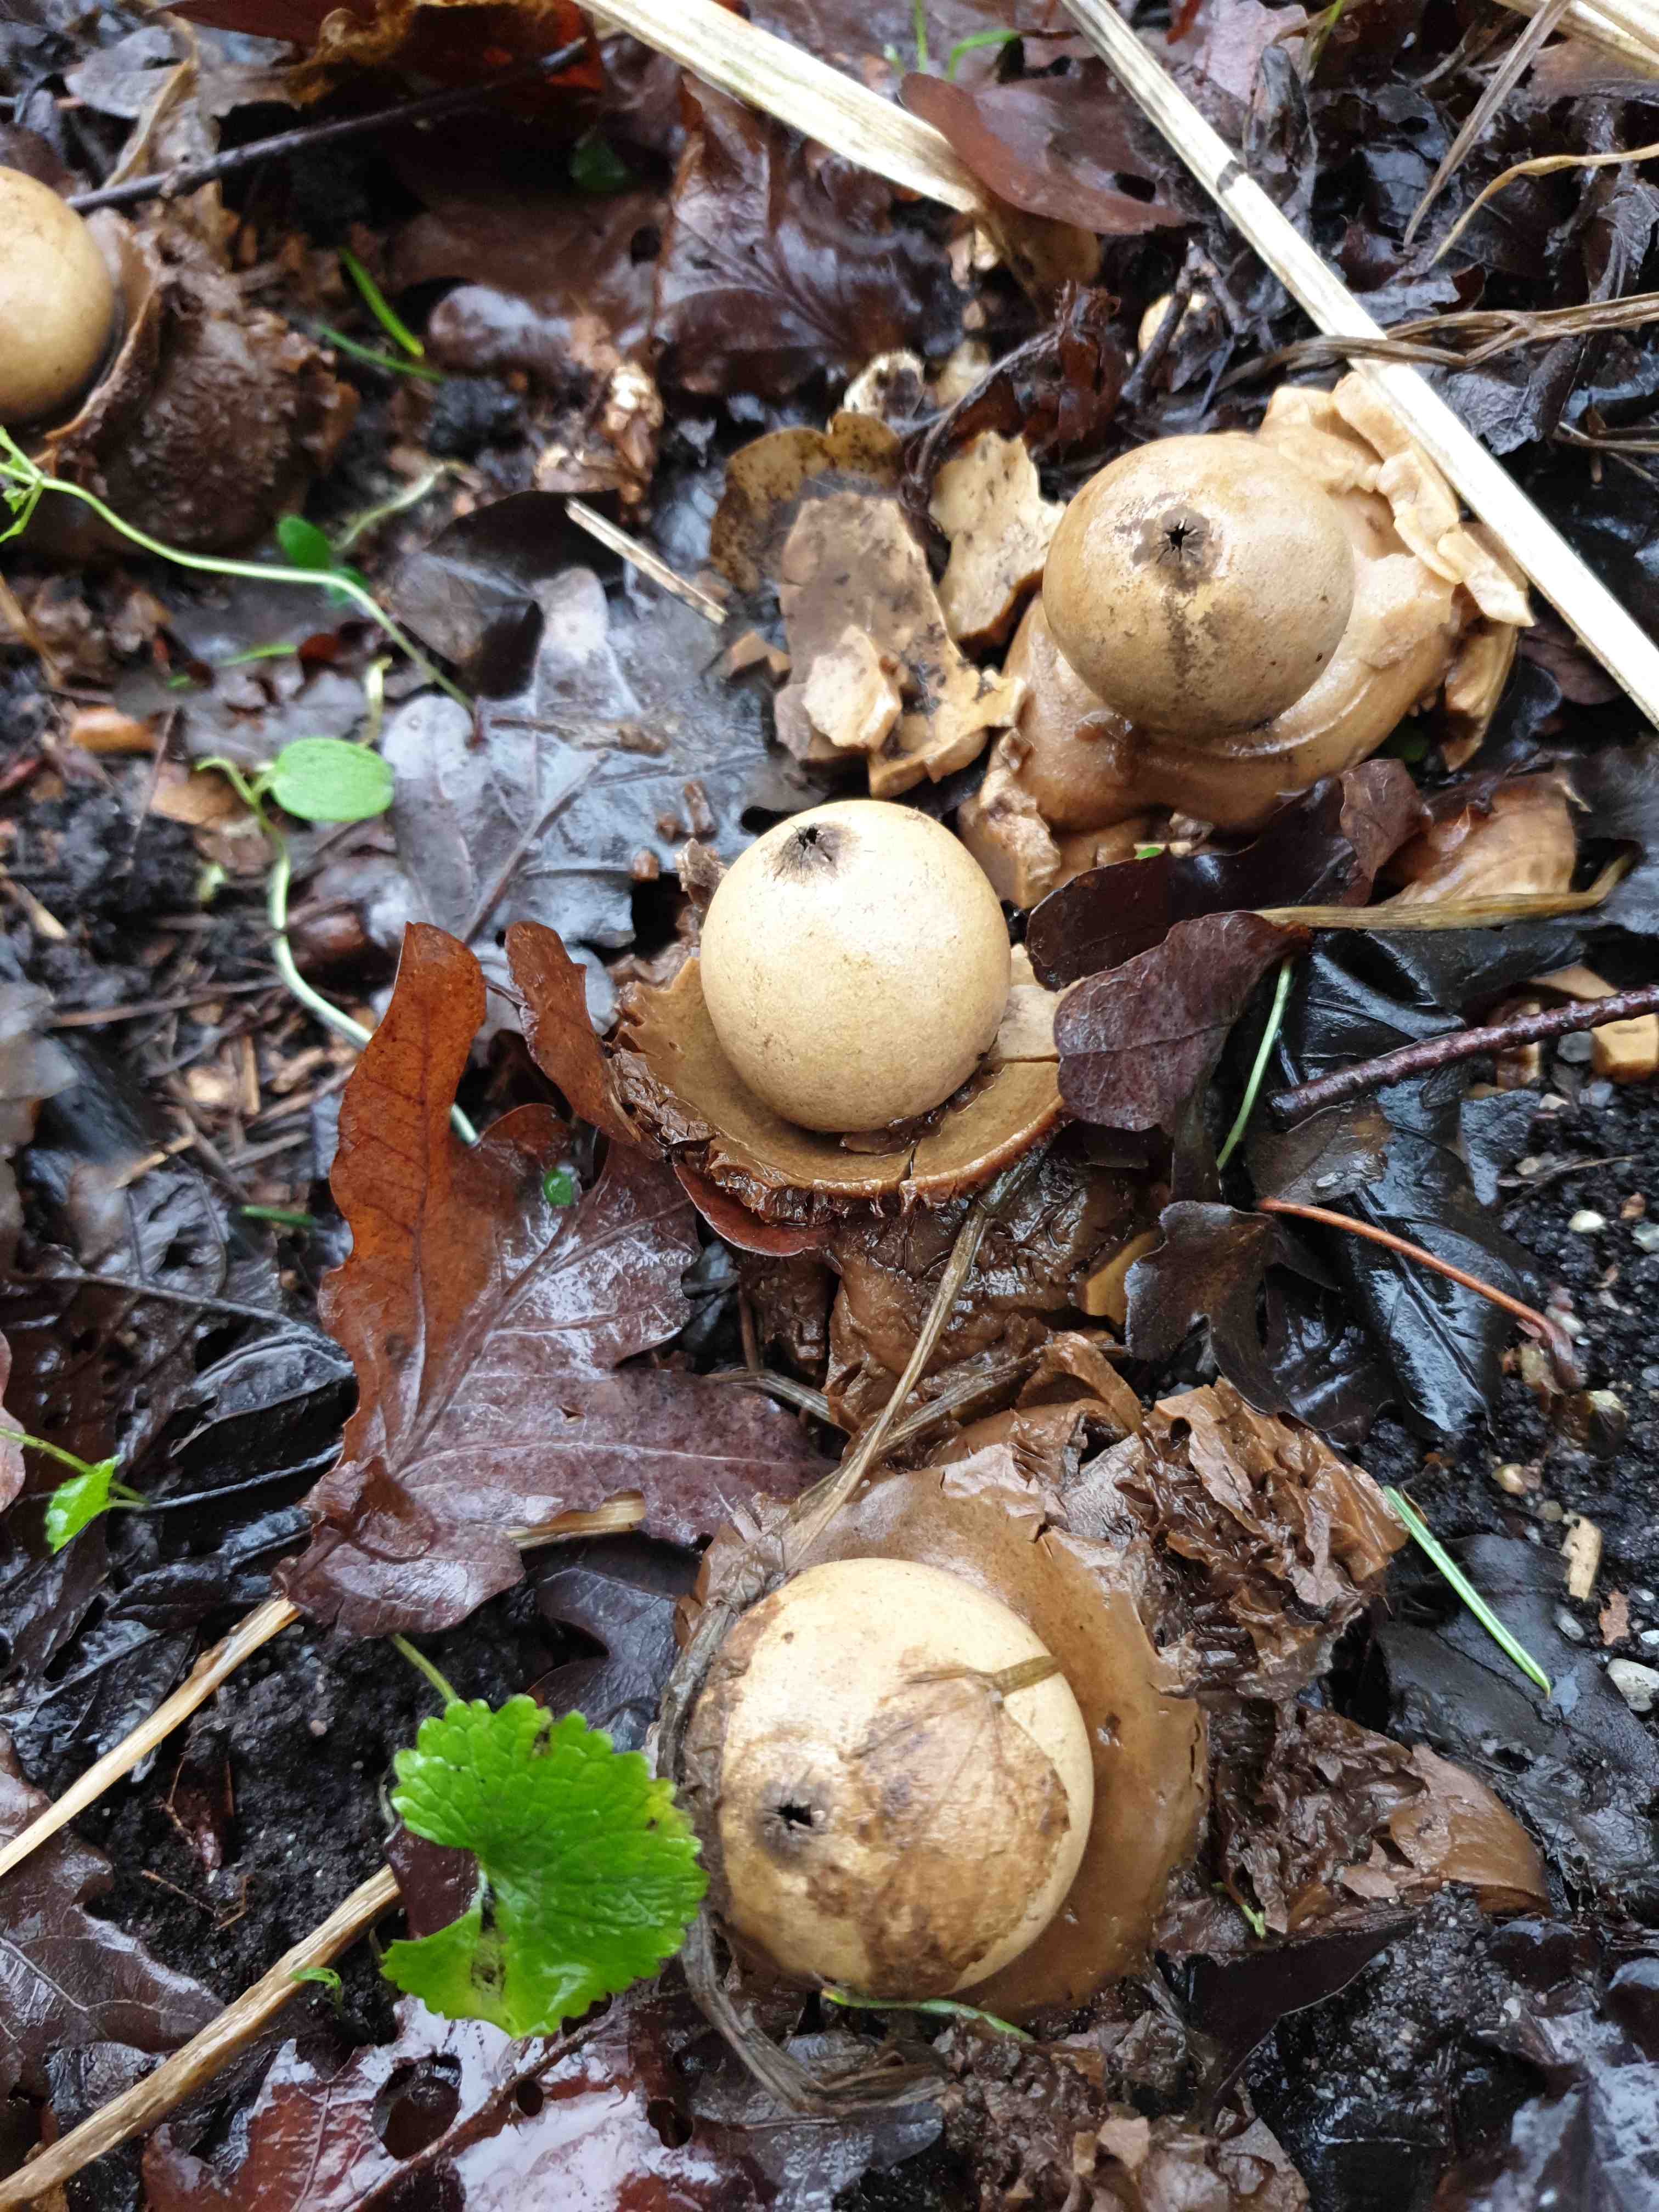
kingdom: Fungi
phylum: Basidiomycota
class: Agaricomycetes
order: Geastrales
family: Geastraceae
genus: Geastrum
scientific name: Geastrum michelianum
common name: kødet stjernebold
